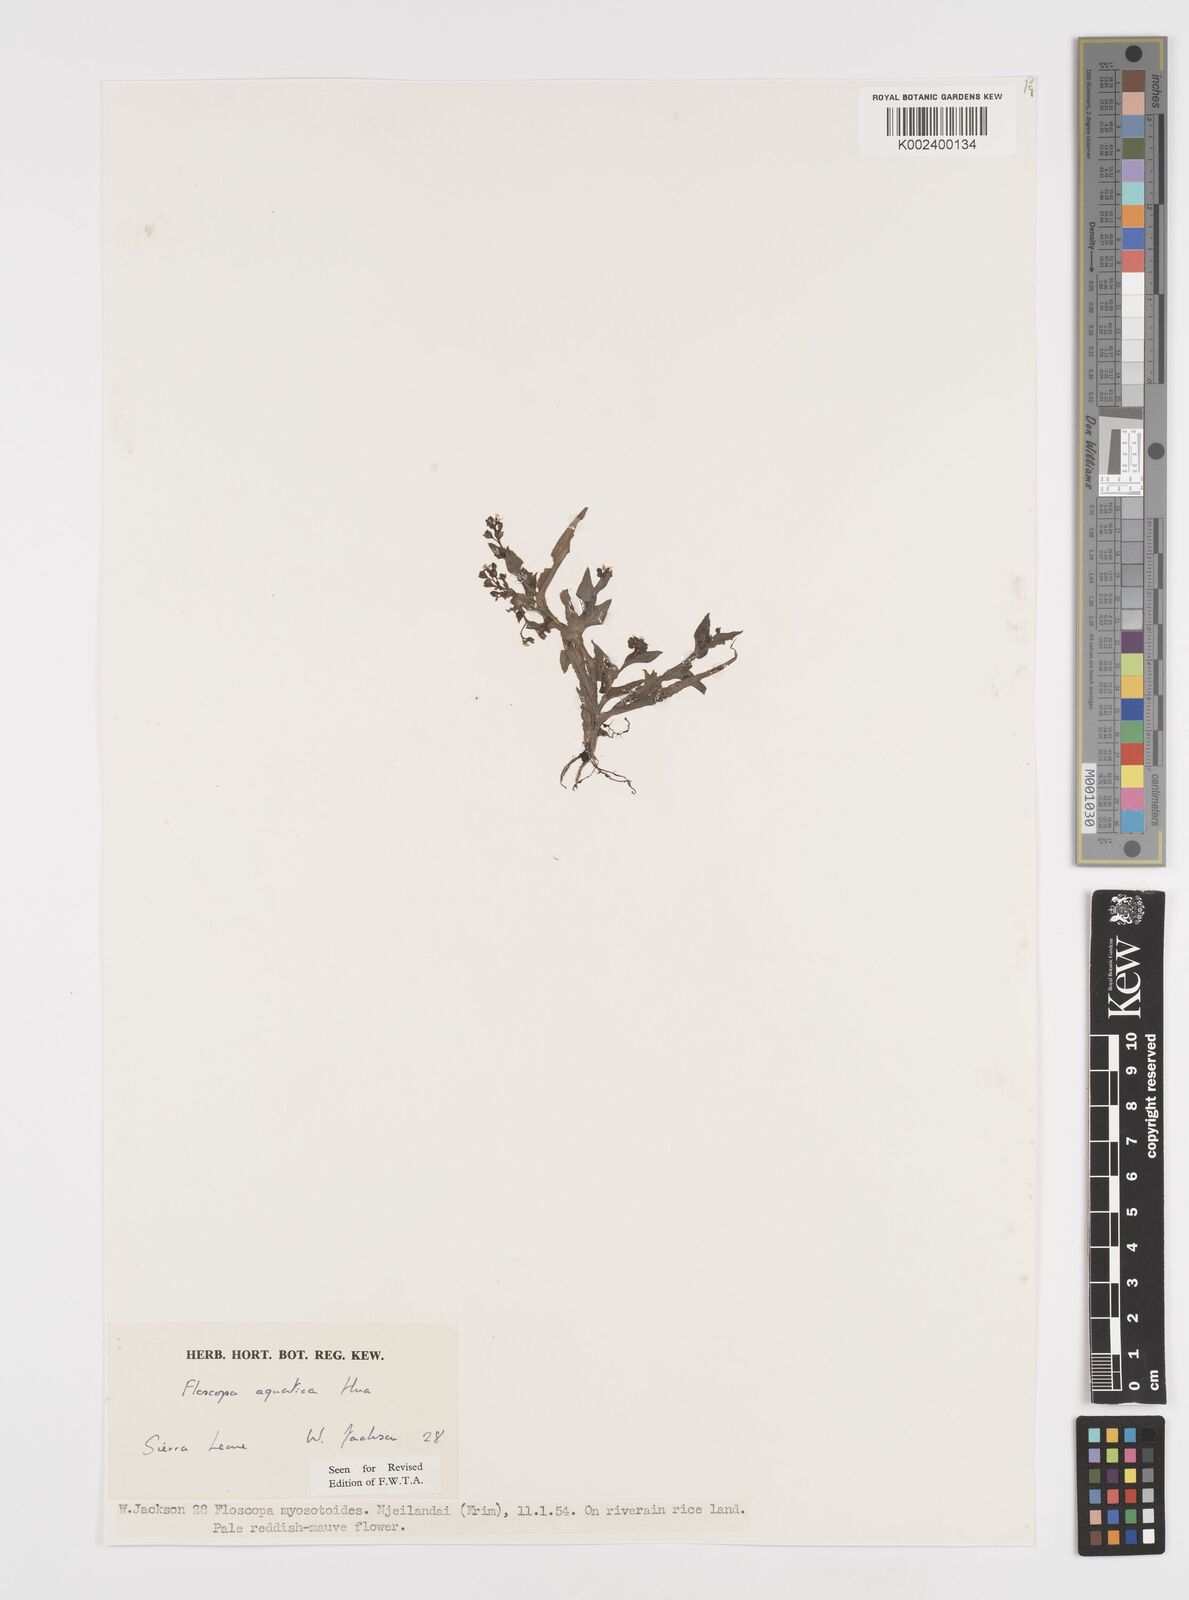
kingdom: Plantae
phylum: Tracheophyta
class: Liliopsida
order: Commelinales
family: Commelinaceae
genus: Floscopa
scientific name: Floscopa aquatica
